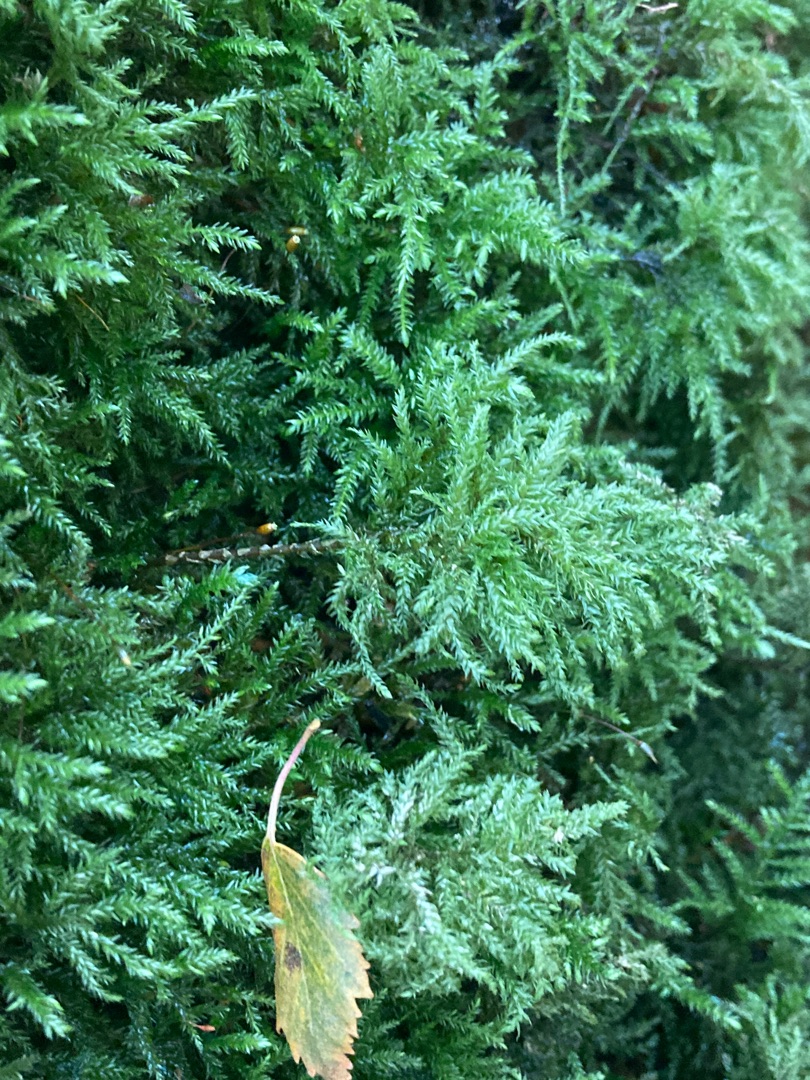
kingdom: Plantae
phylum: Bryophyta
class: Bryopsida
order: Hypnales
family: Neckeraceae
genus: Thamnobryum
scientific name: Thamnobryum alopecurum
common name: Mat bækkost
